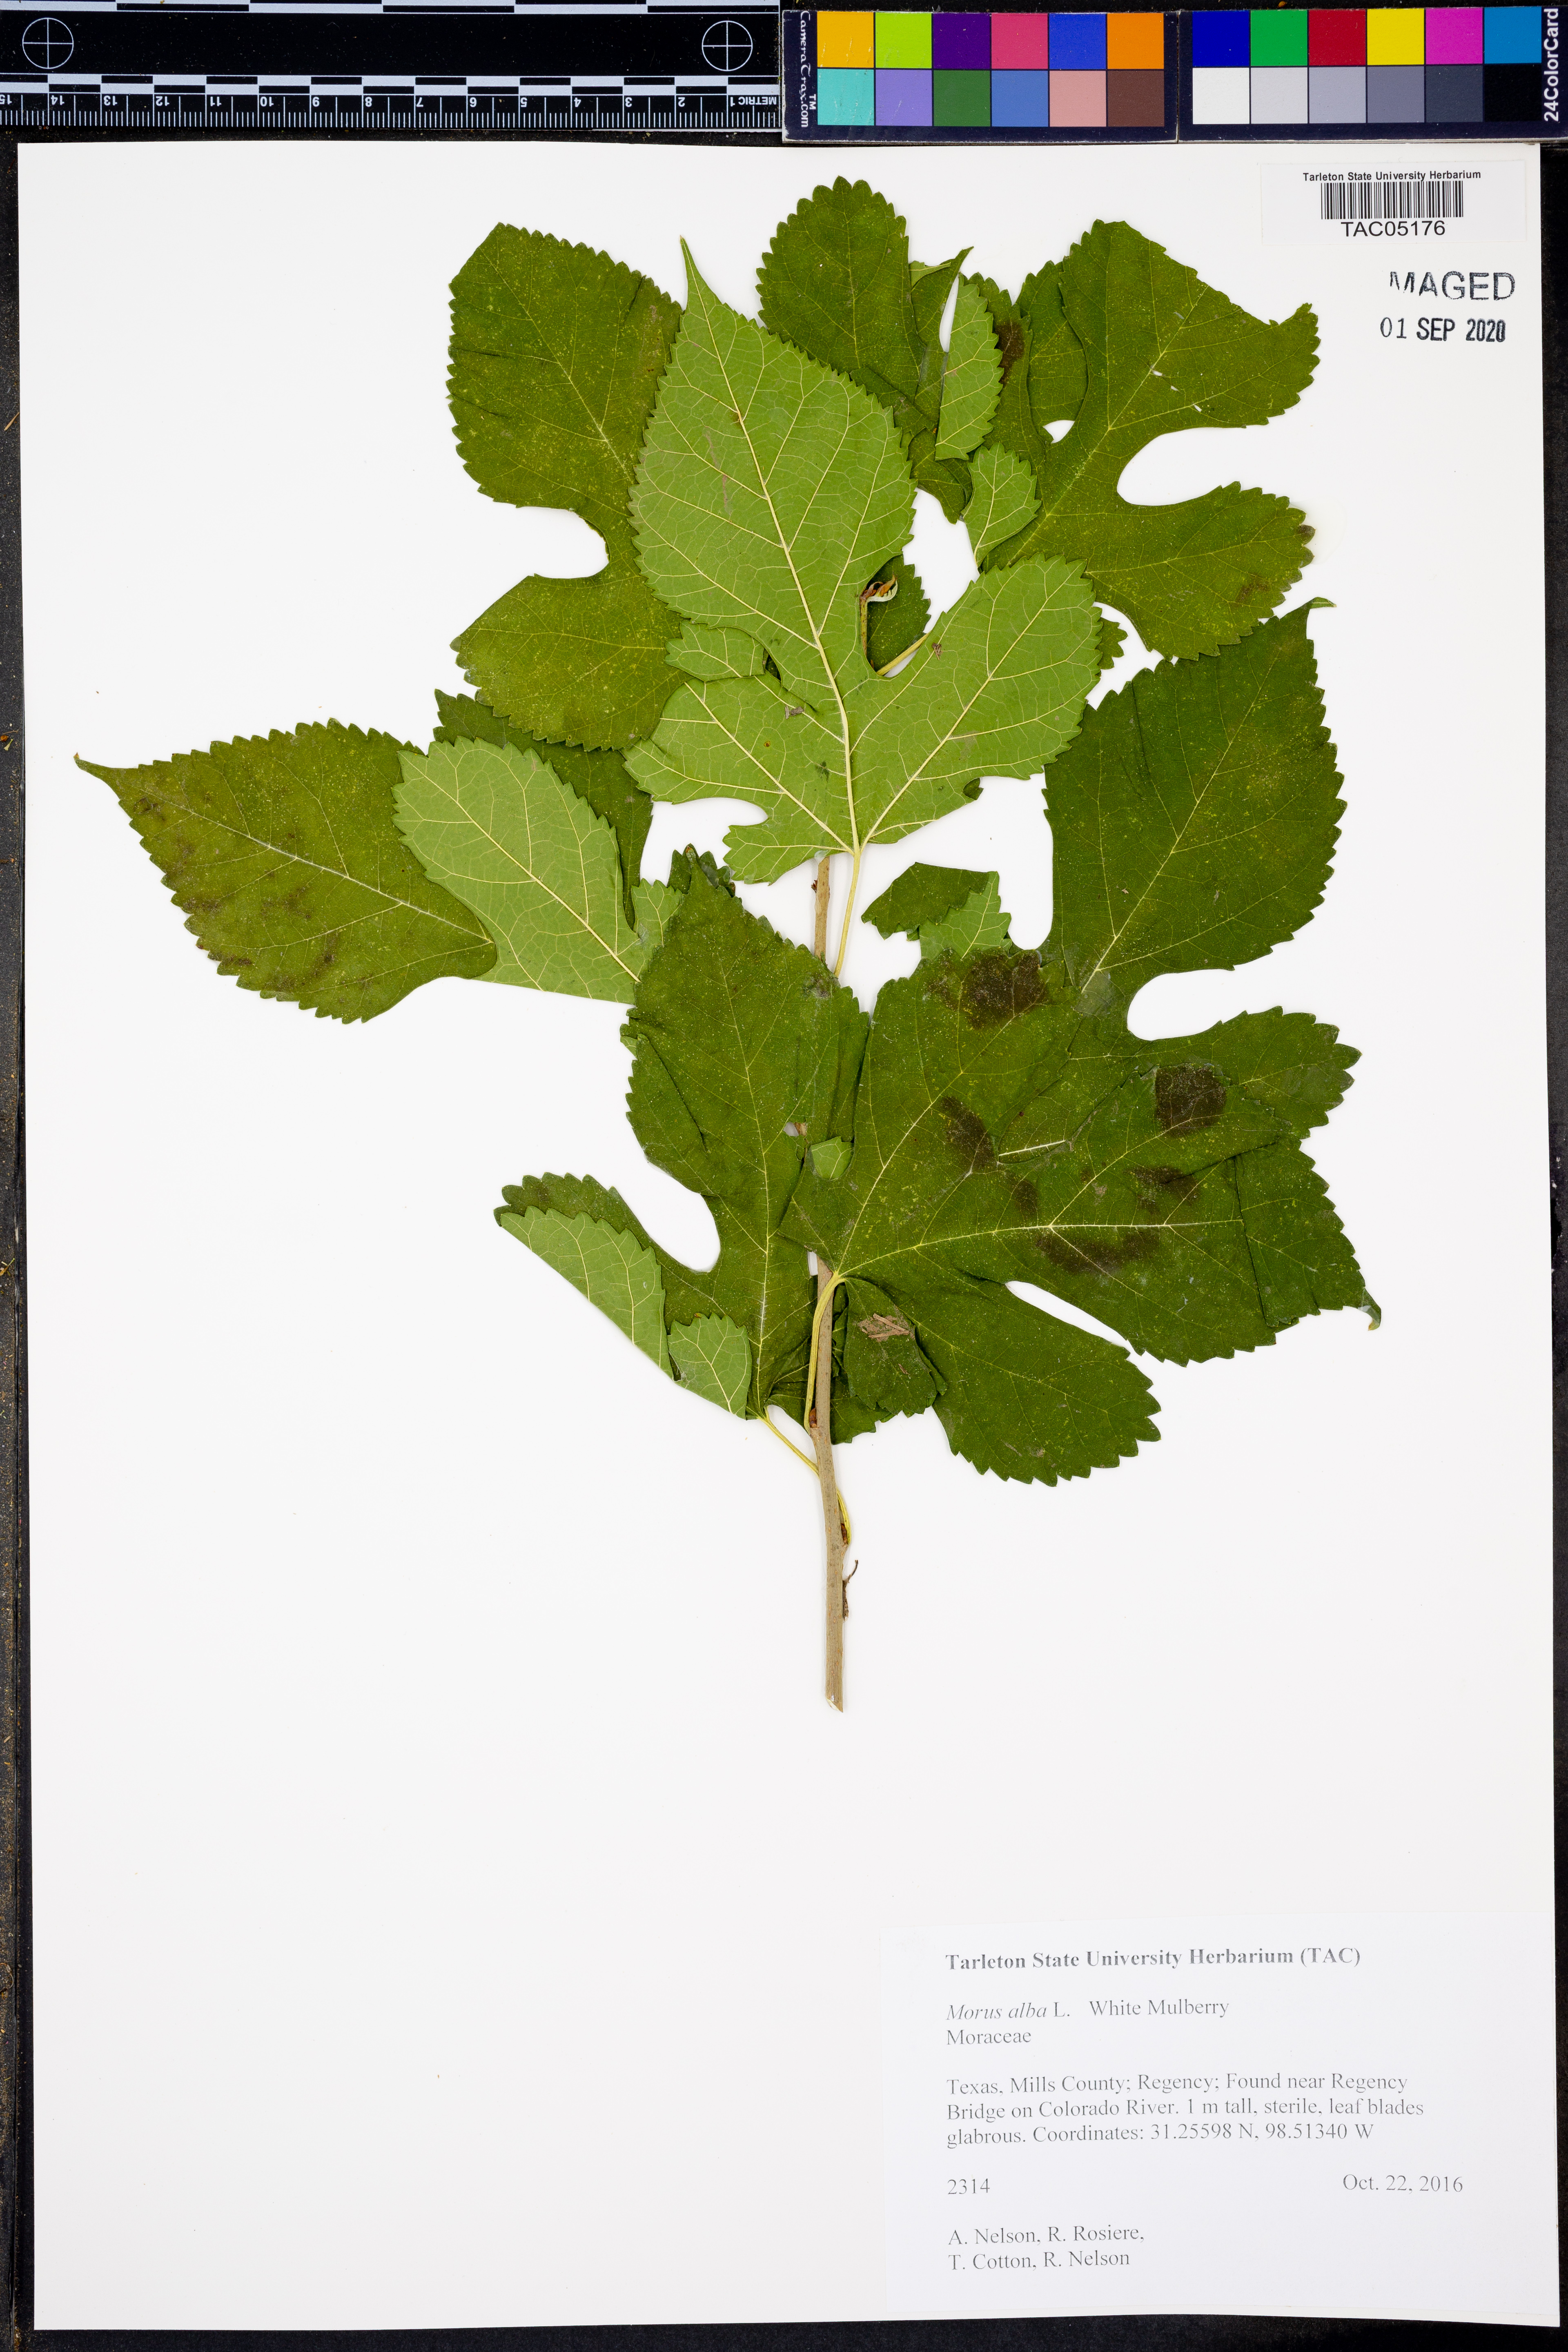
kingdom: Plantae
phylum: Tracheophyta
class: Magnoliopsida
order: Rosales
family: Moraceae
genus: Morus
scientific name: Morus alba
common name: White mulberry
